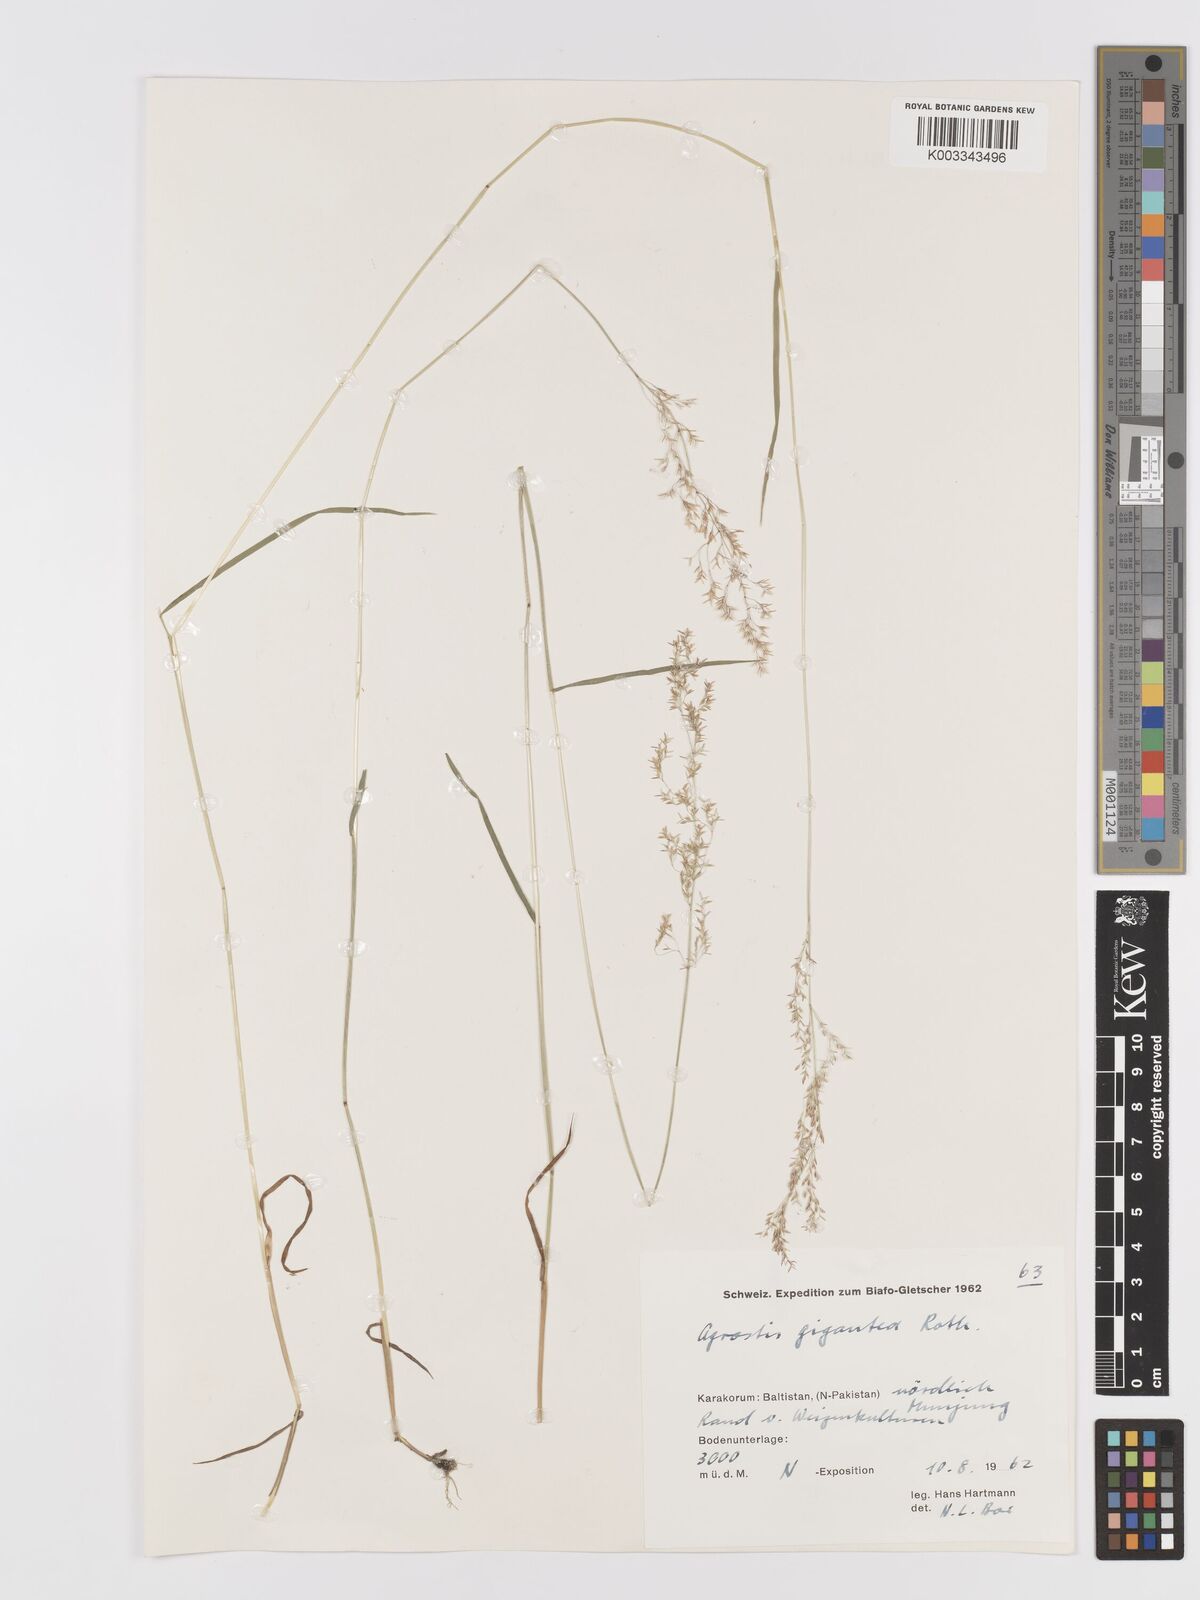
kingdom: Plantae
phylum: Tracheophyta
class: Liliopsida
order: Poales
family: Poaceae
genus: Agrostis
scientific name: Agrostis gigantea
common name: Black bent
